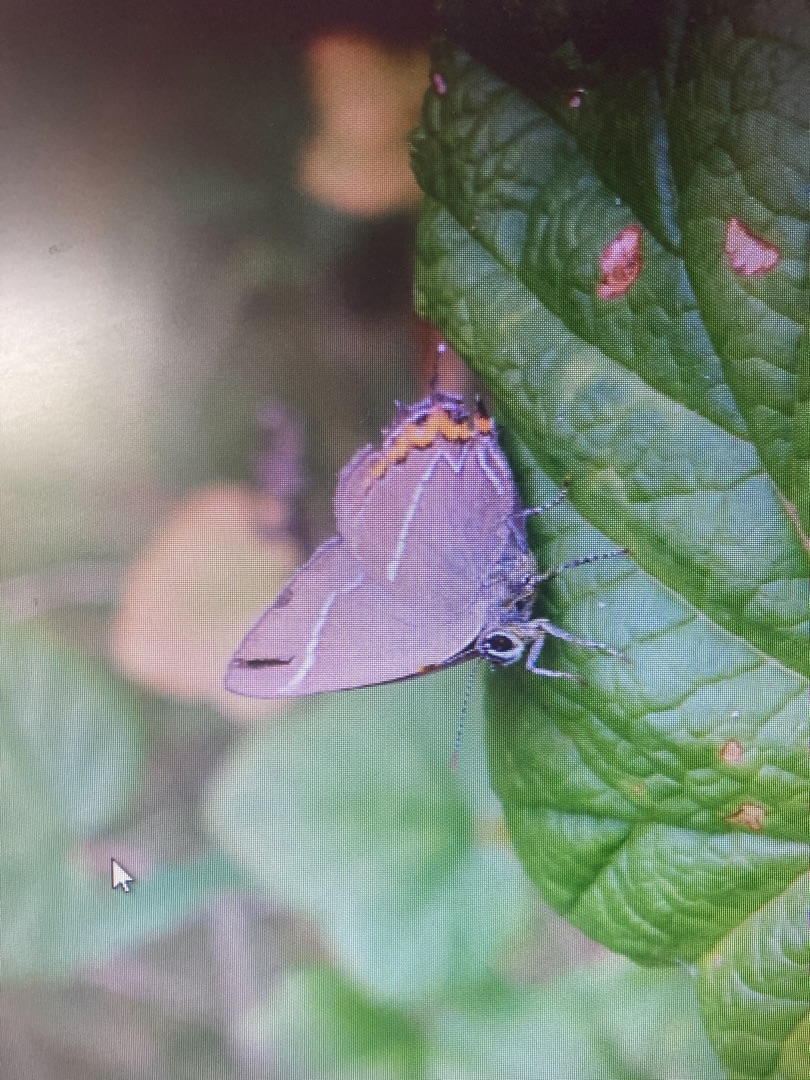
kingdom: Animalia
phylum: Arthropoda
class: Insecta
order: Lepidoptera
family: Lycaenidae
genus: Satyrium
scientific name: Satyrium w-album
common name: Det hvide W
